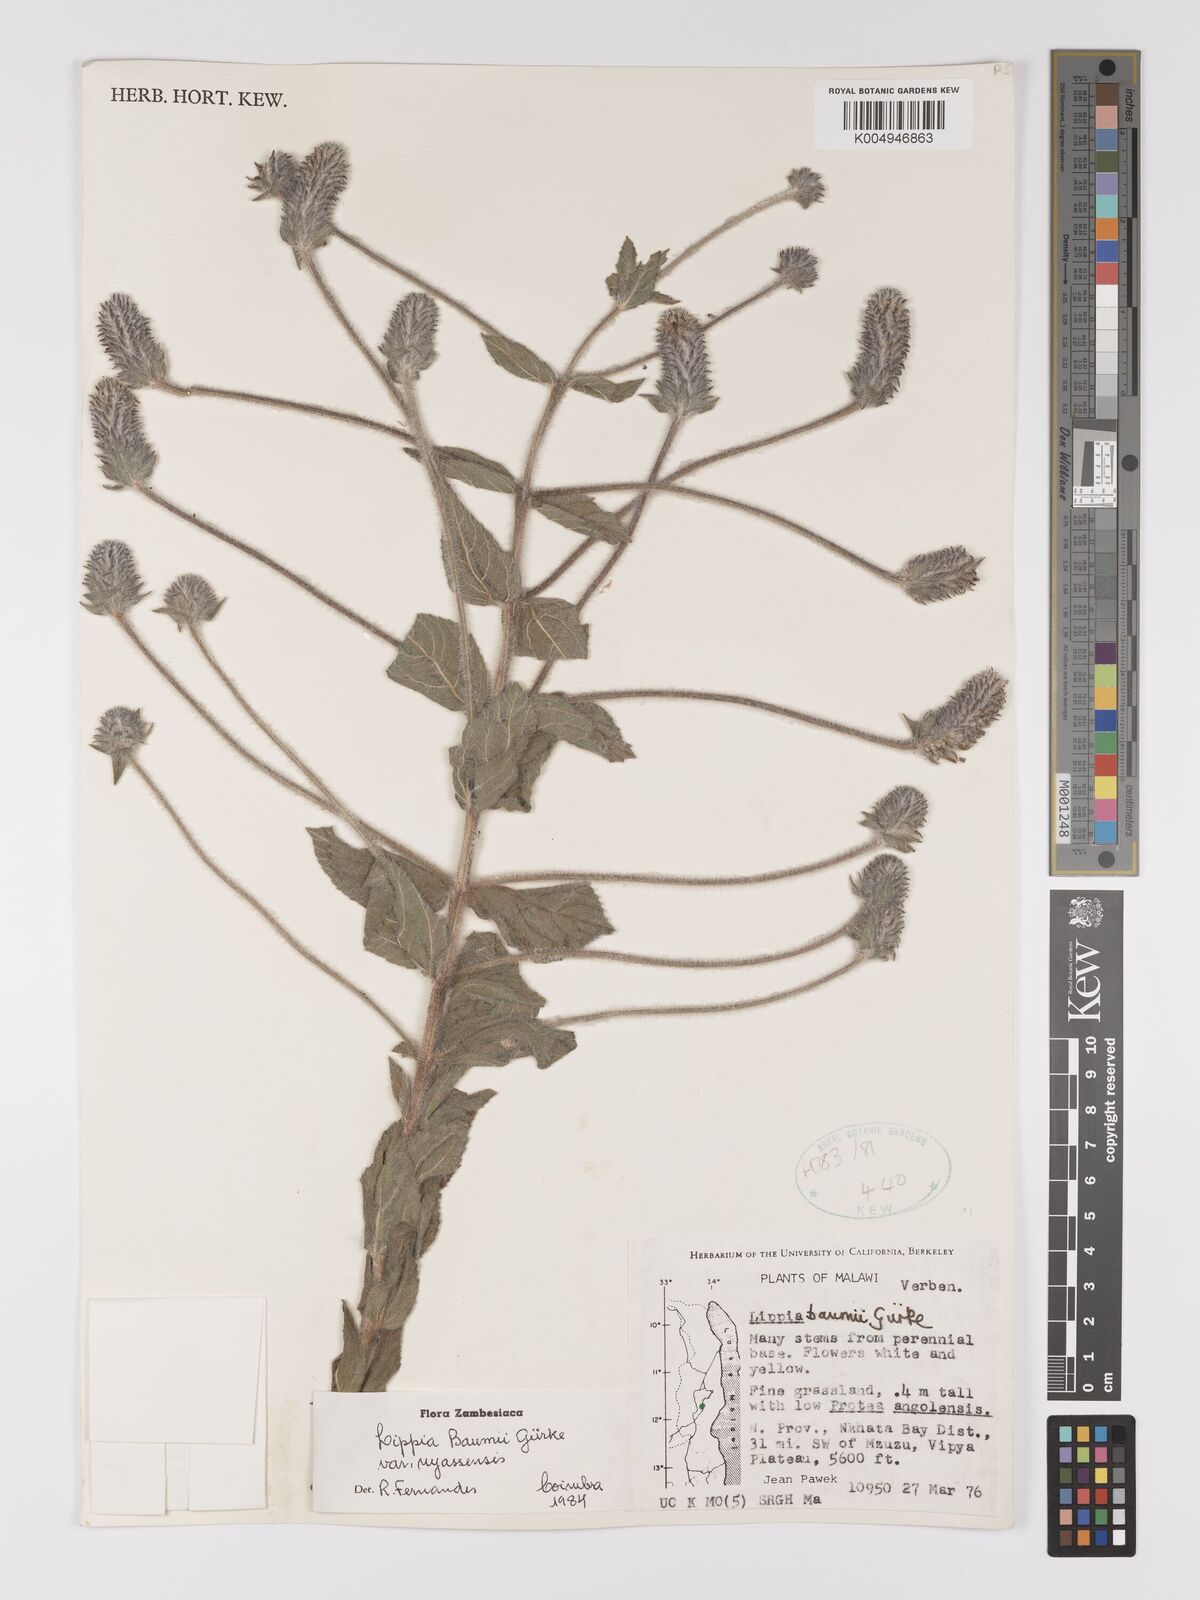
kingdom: Plantae
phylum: Tracheophyta
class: Magnoliopsida
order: Lamiales
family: Verbenaceae
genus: Lippia
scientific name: Lippia baumii
